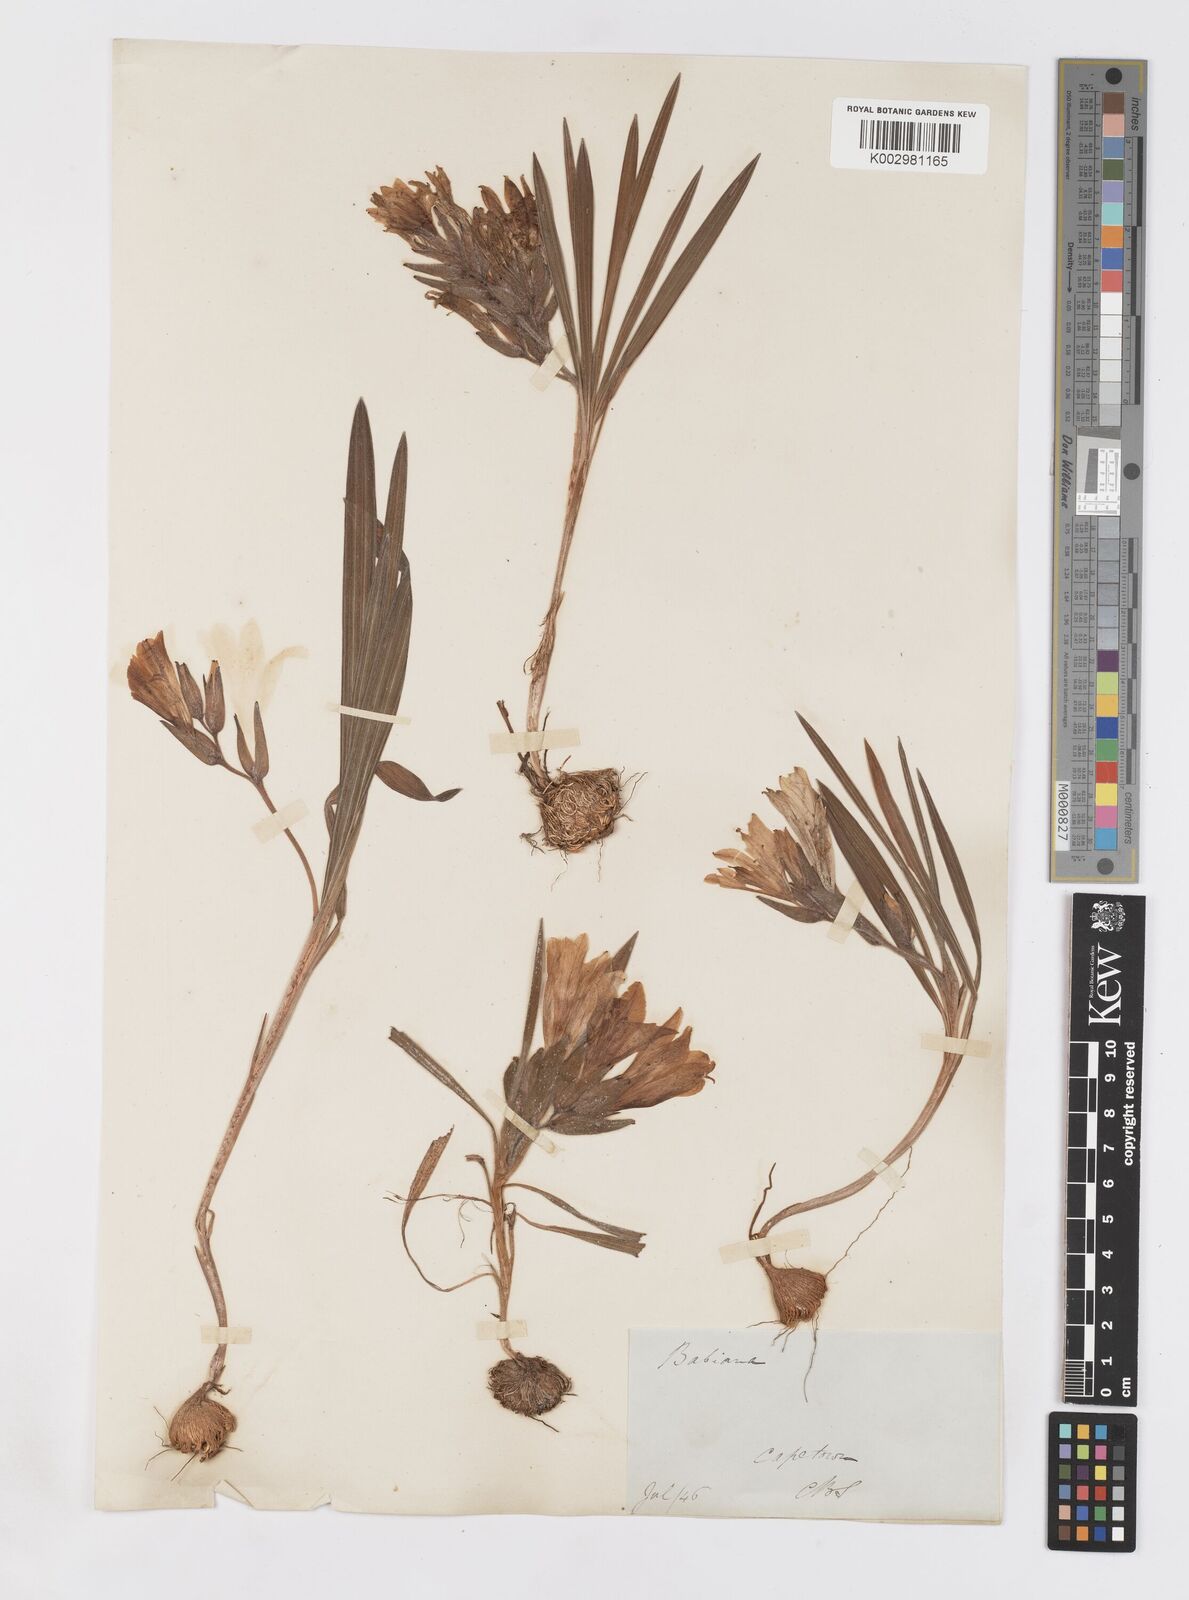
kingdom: Plantae
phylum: Tracheophyta
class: Liliopsida
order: Asparagales
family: Iridaceae
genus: Babiana
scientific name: Babiana
